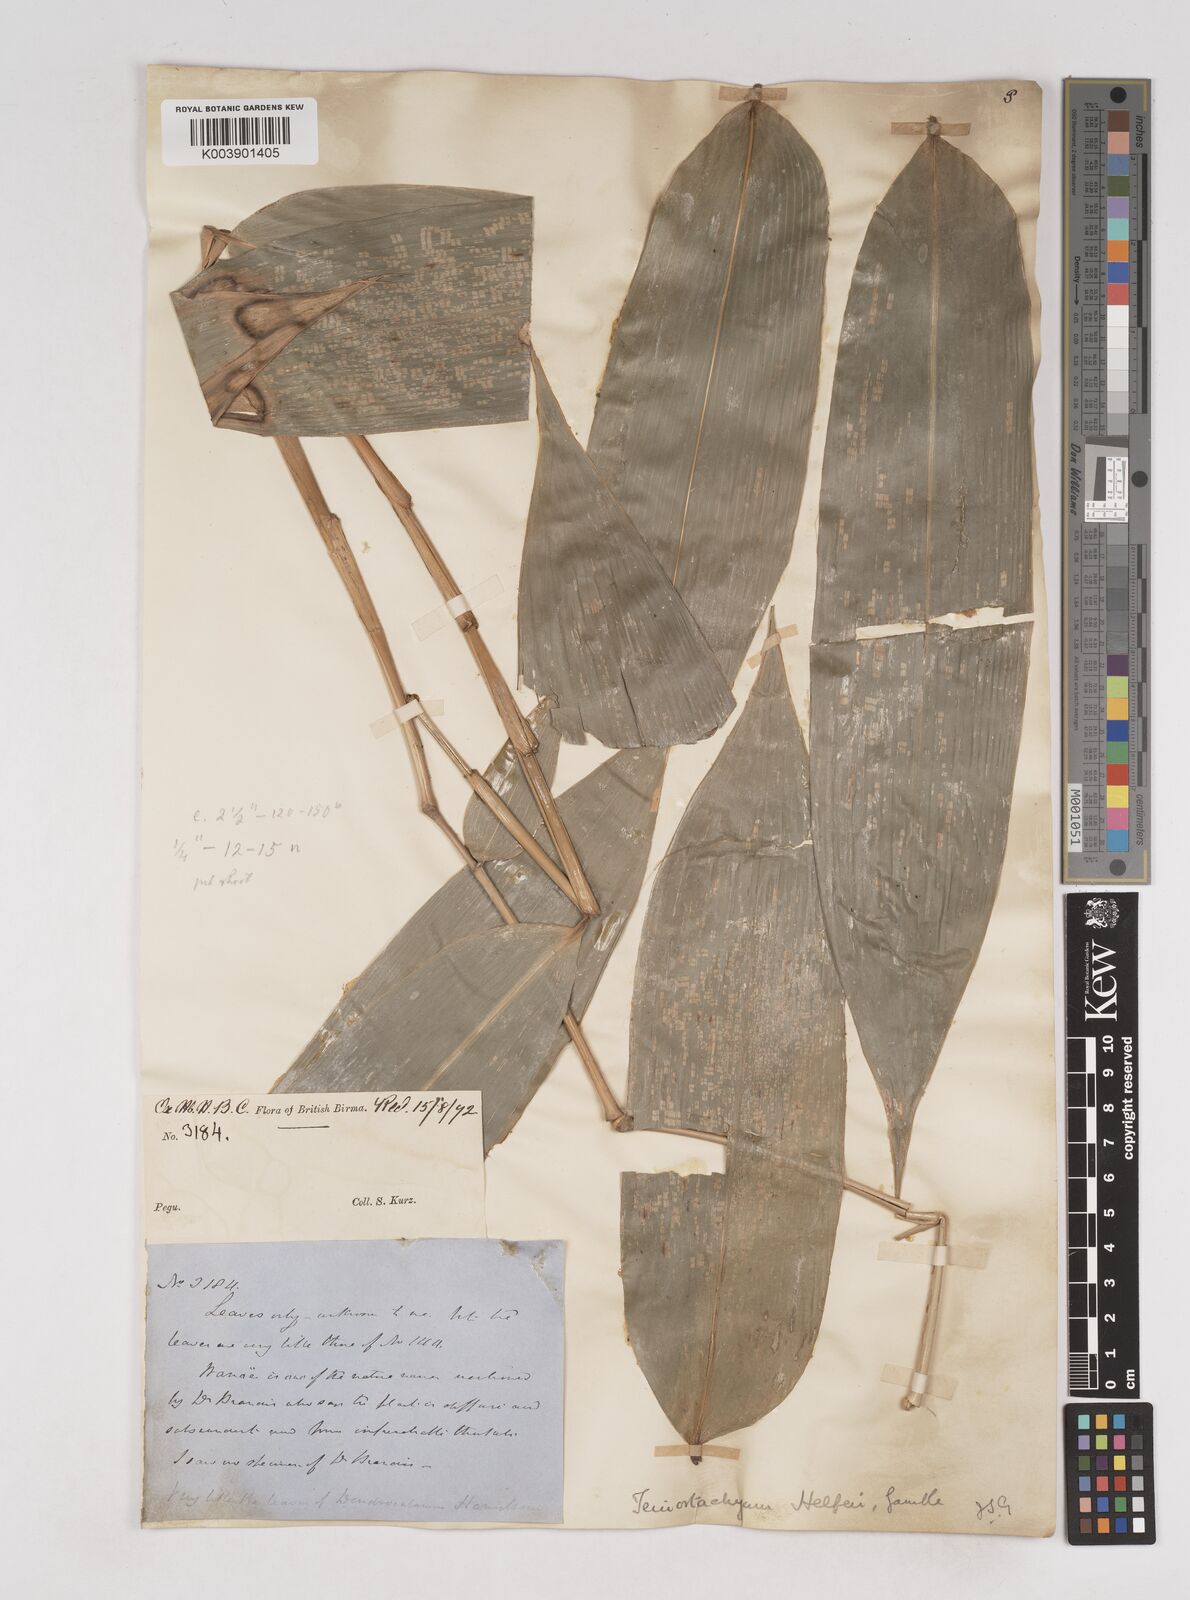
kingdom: Plantae
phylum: Tracheophyta
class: Liliopsida
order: Poales
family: Poaceae
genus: Schizostachyum
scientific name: Schizostachyum helferi
